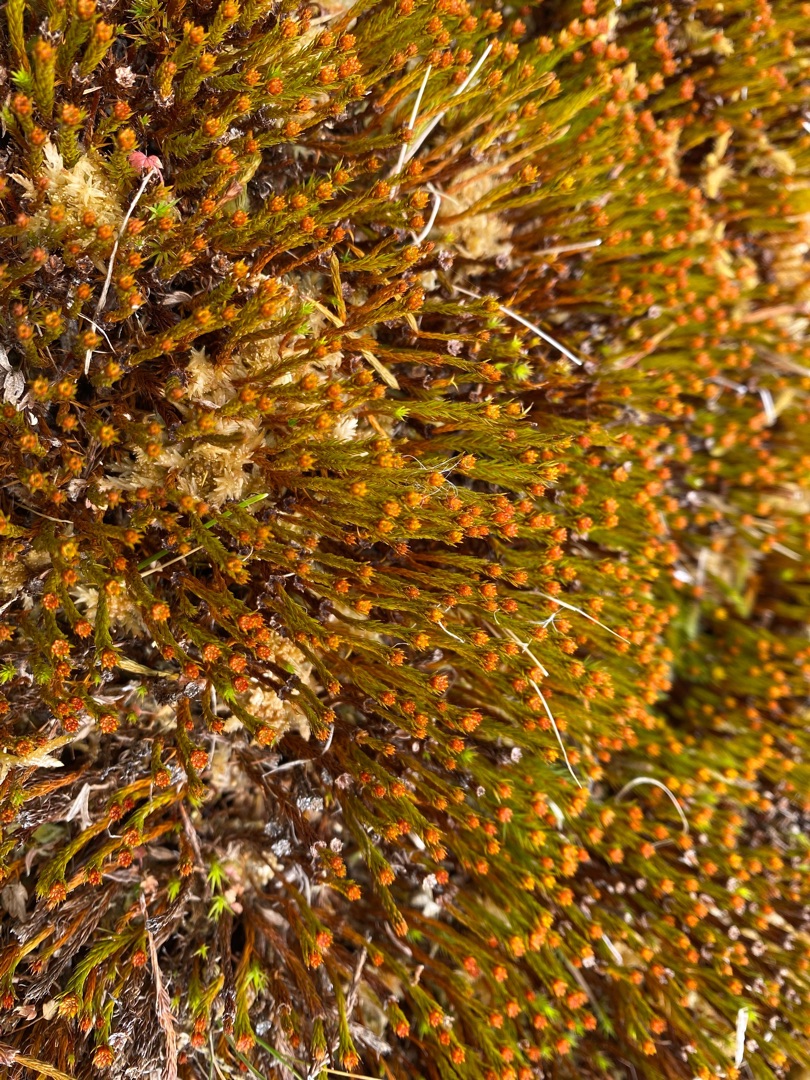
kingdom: Plantae
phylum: Bryophyta
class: Polytrichopsida
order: Polytrichales
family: Polytrichaceae
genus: Polytrichum
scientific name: Polytrichum strictum
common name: Filtstænglet jomfruhår
